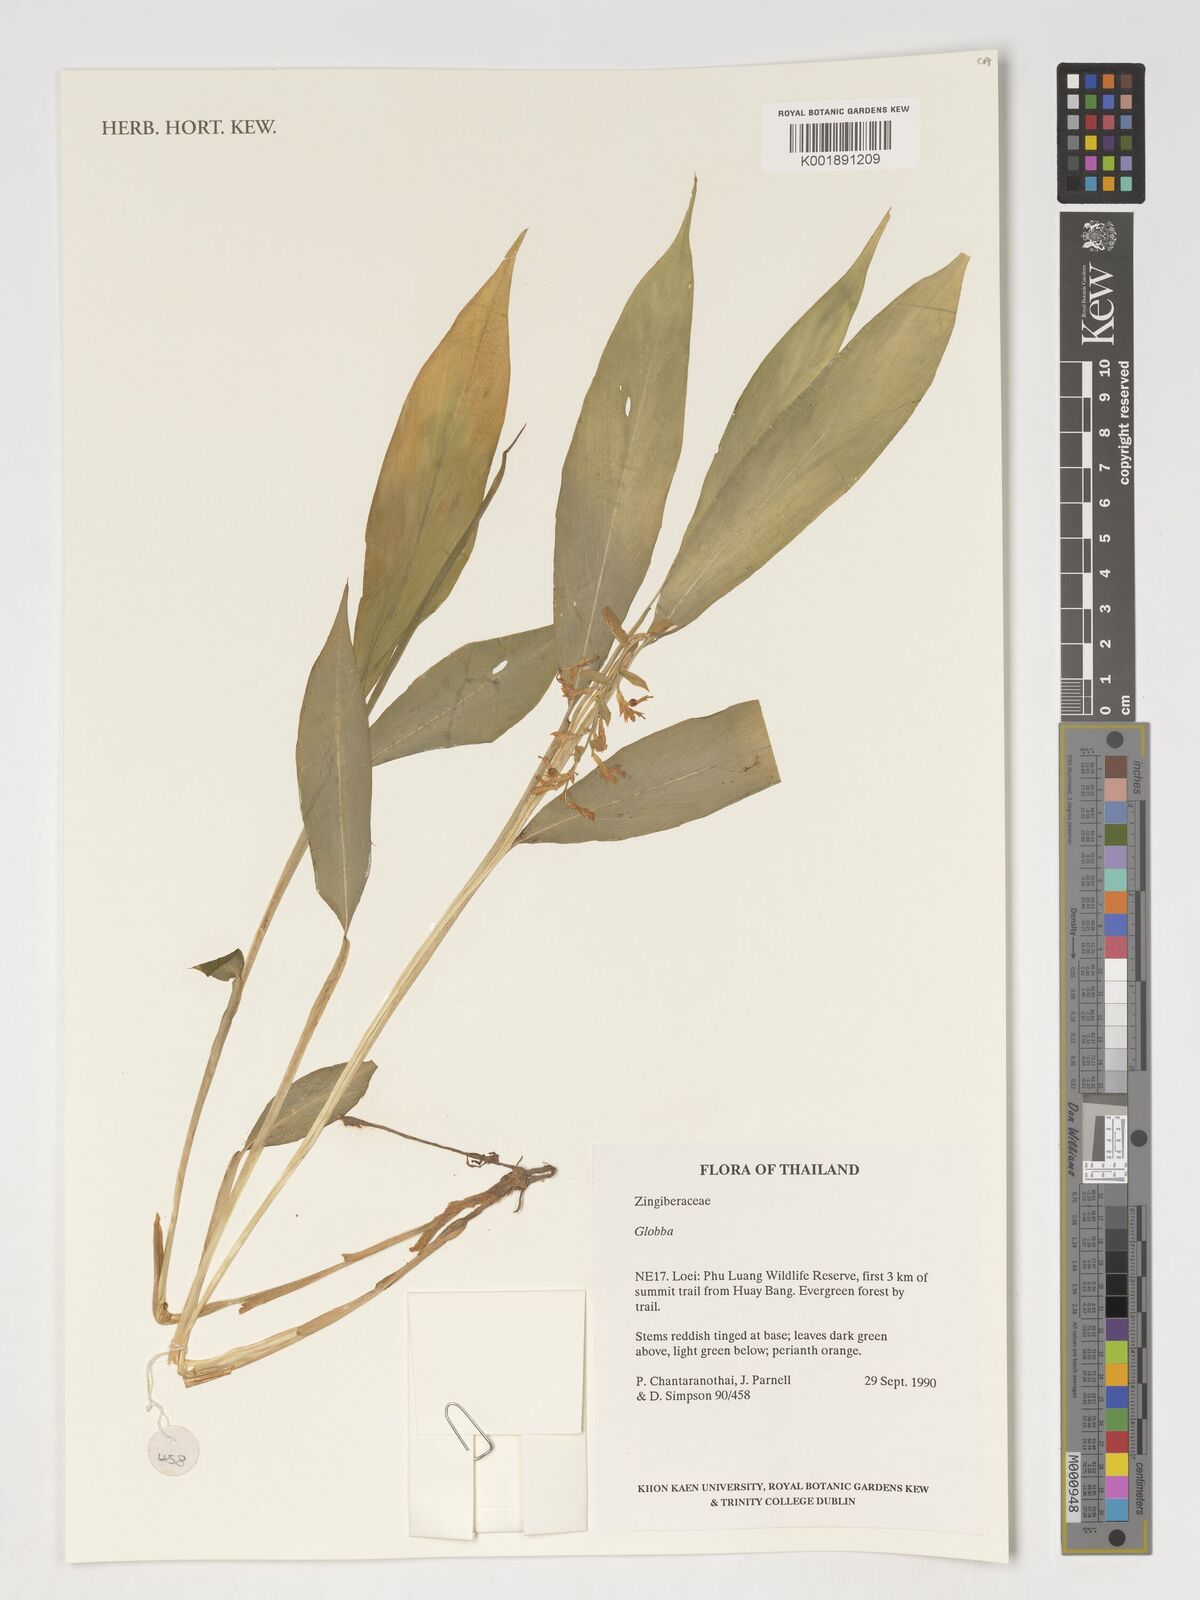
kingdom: Plantae
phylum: Tracheophyta
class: Liliopsida
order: Zingiberales
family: Zingiberaceae
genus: Globba
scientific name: Globba
